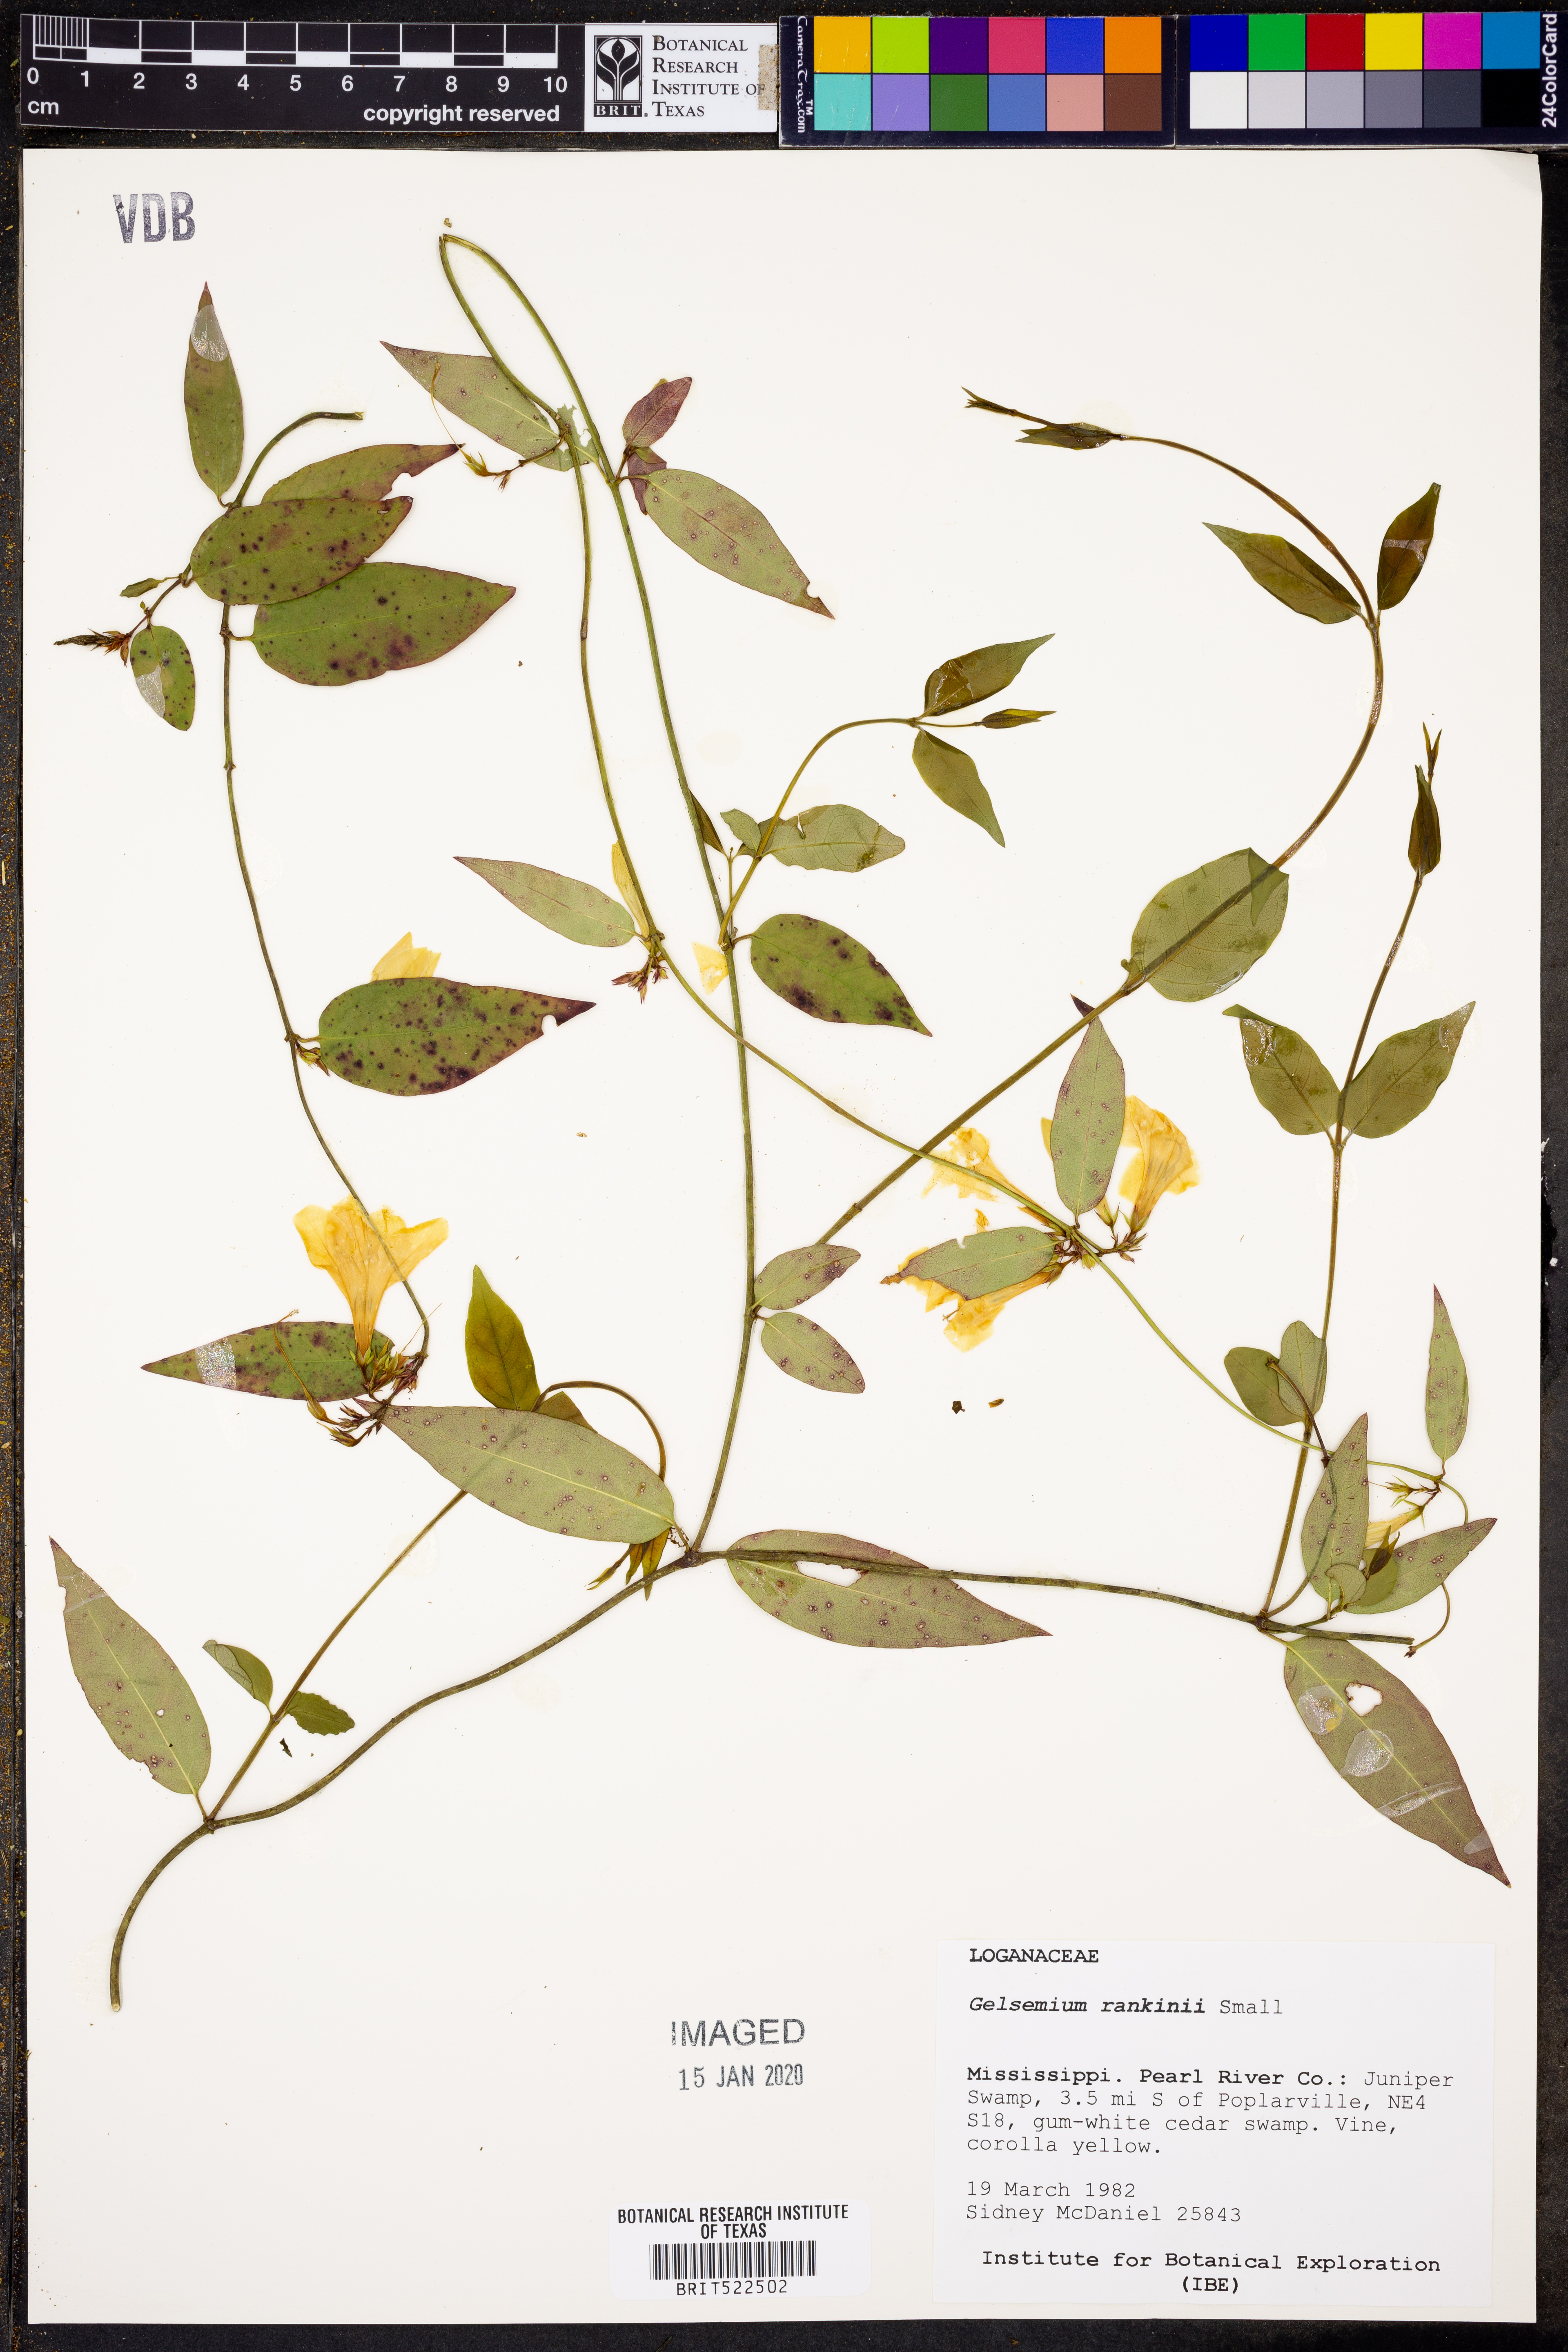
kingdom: Plantae
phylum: Tracheophyta
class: Magnoliopsida
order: Gentianales
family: Gelsemiaceae
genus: Gelsemium
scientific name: Gelsemium rankinii
